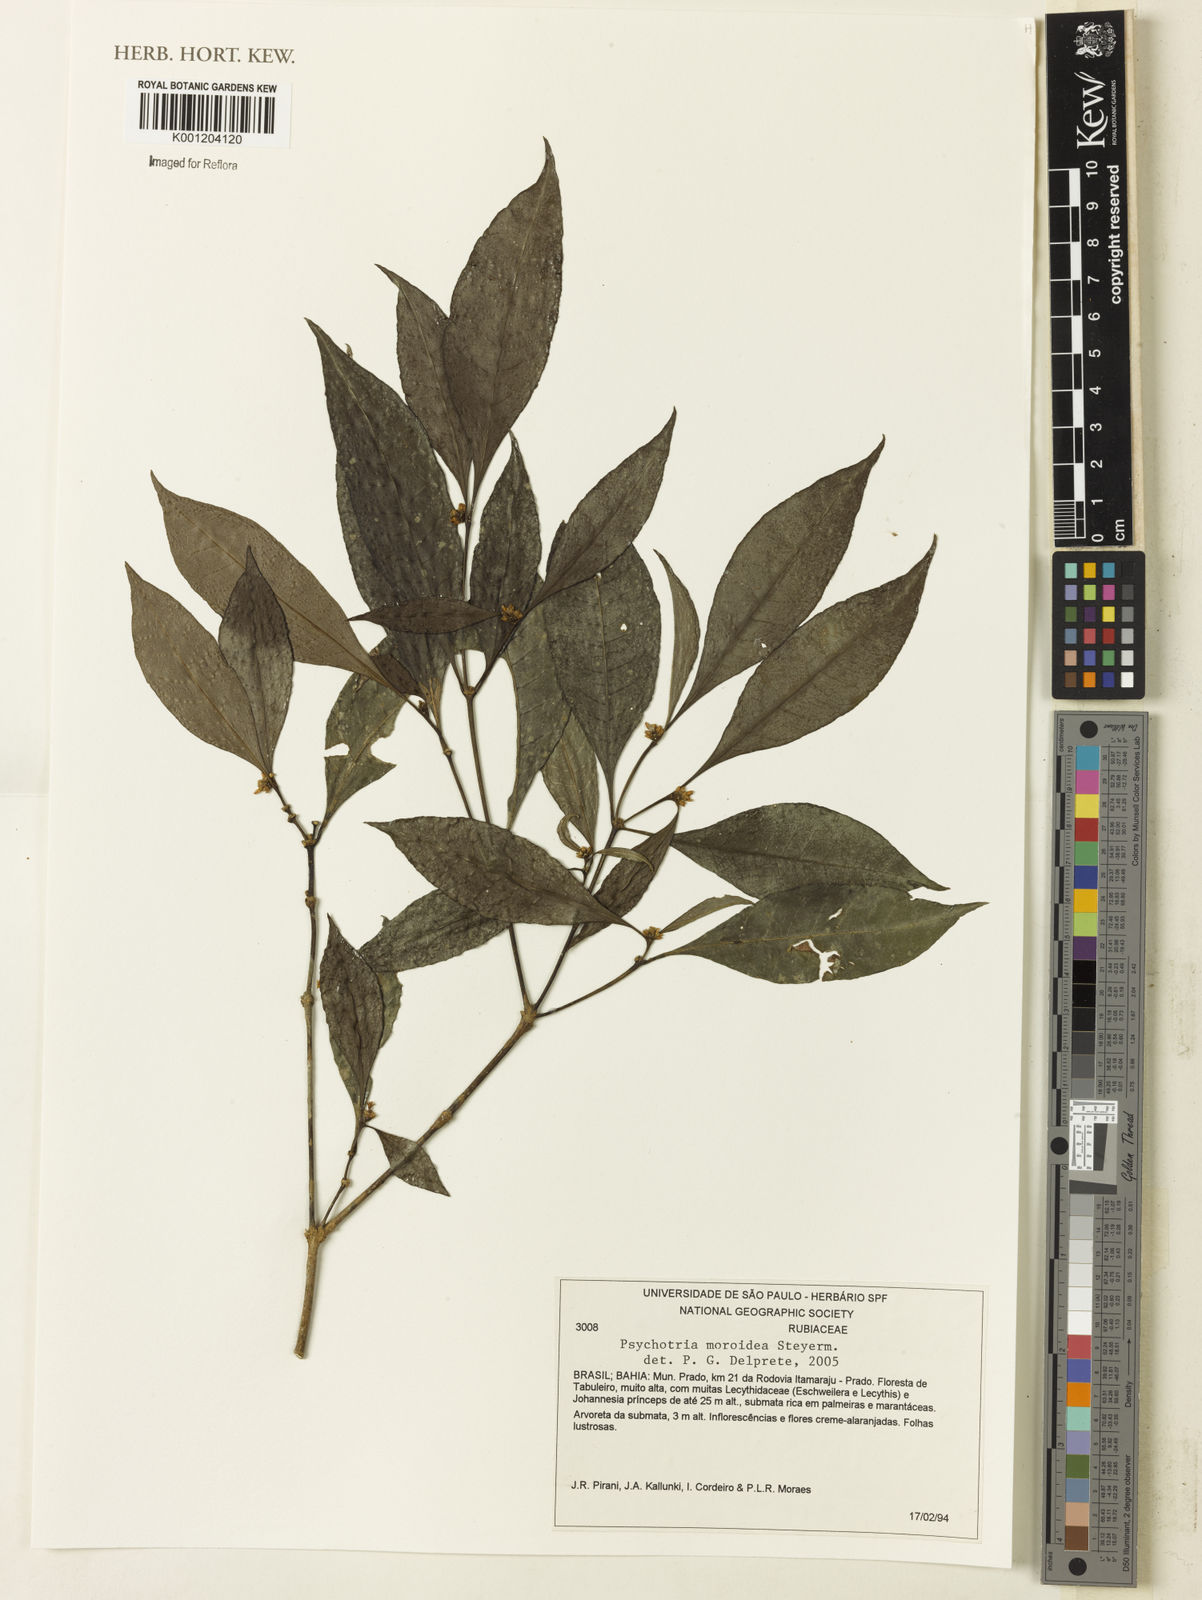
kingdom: Plantae
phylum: Tracheophyta
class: Magnoliopsida
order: Gentianales
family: Rubiaceae
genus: Eumachia
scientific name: Eumachia guianensis
